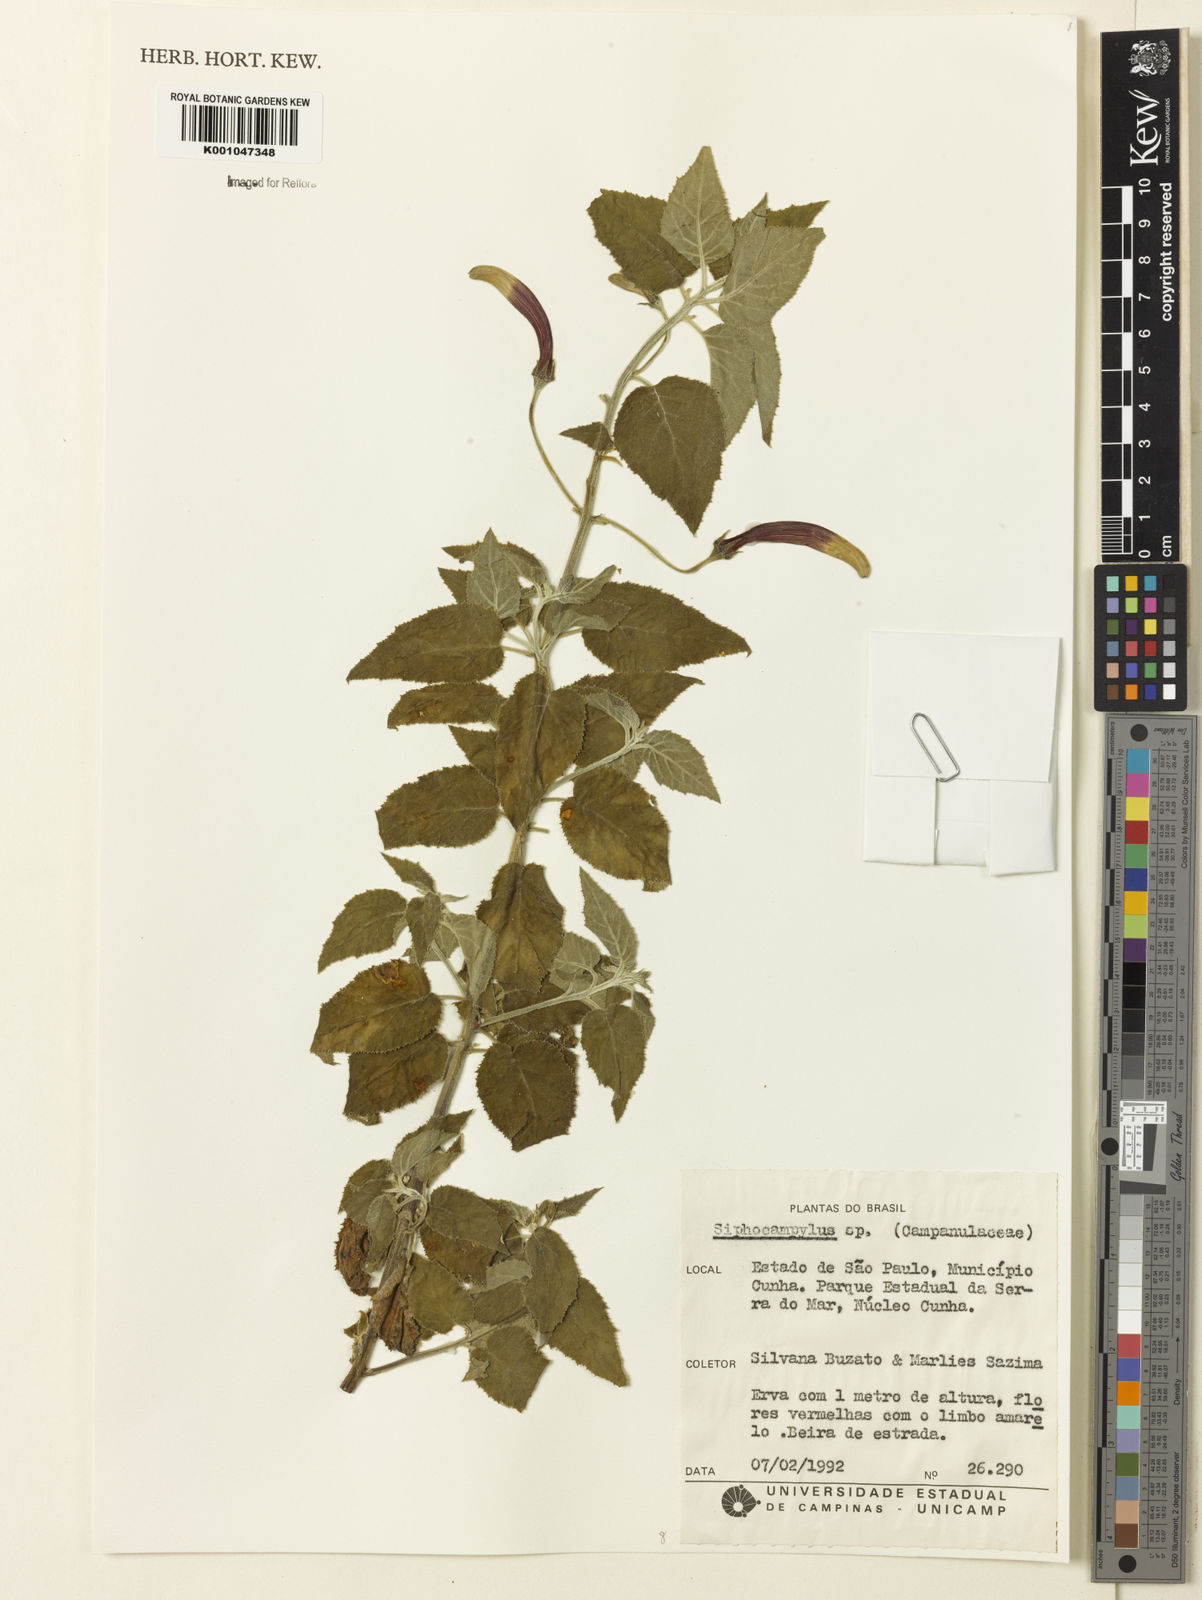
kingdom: Plantae
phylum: Tracheophyta
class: Magnoliopsida
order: Asterales
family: Campanulaceae
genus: Siphocampylus
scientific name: Siphocampylus
